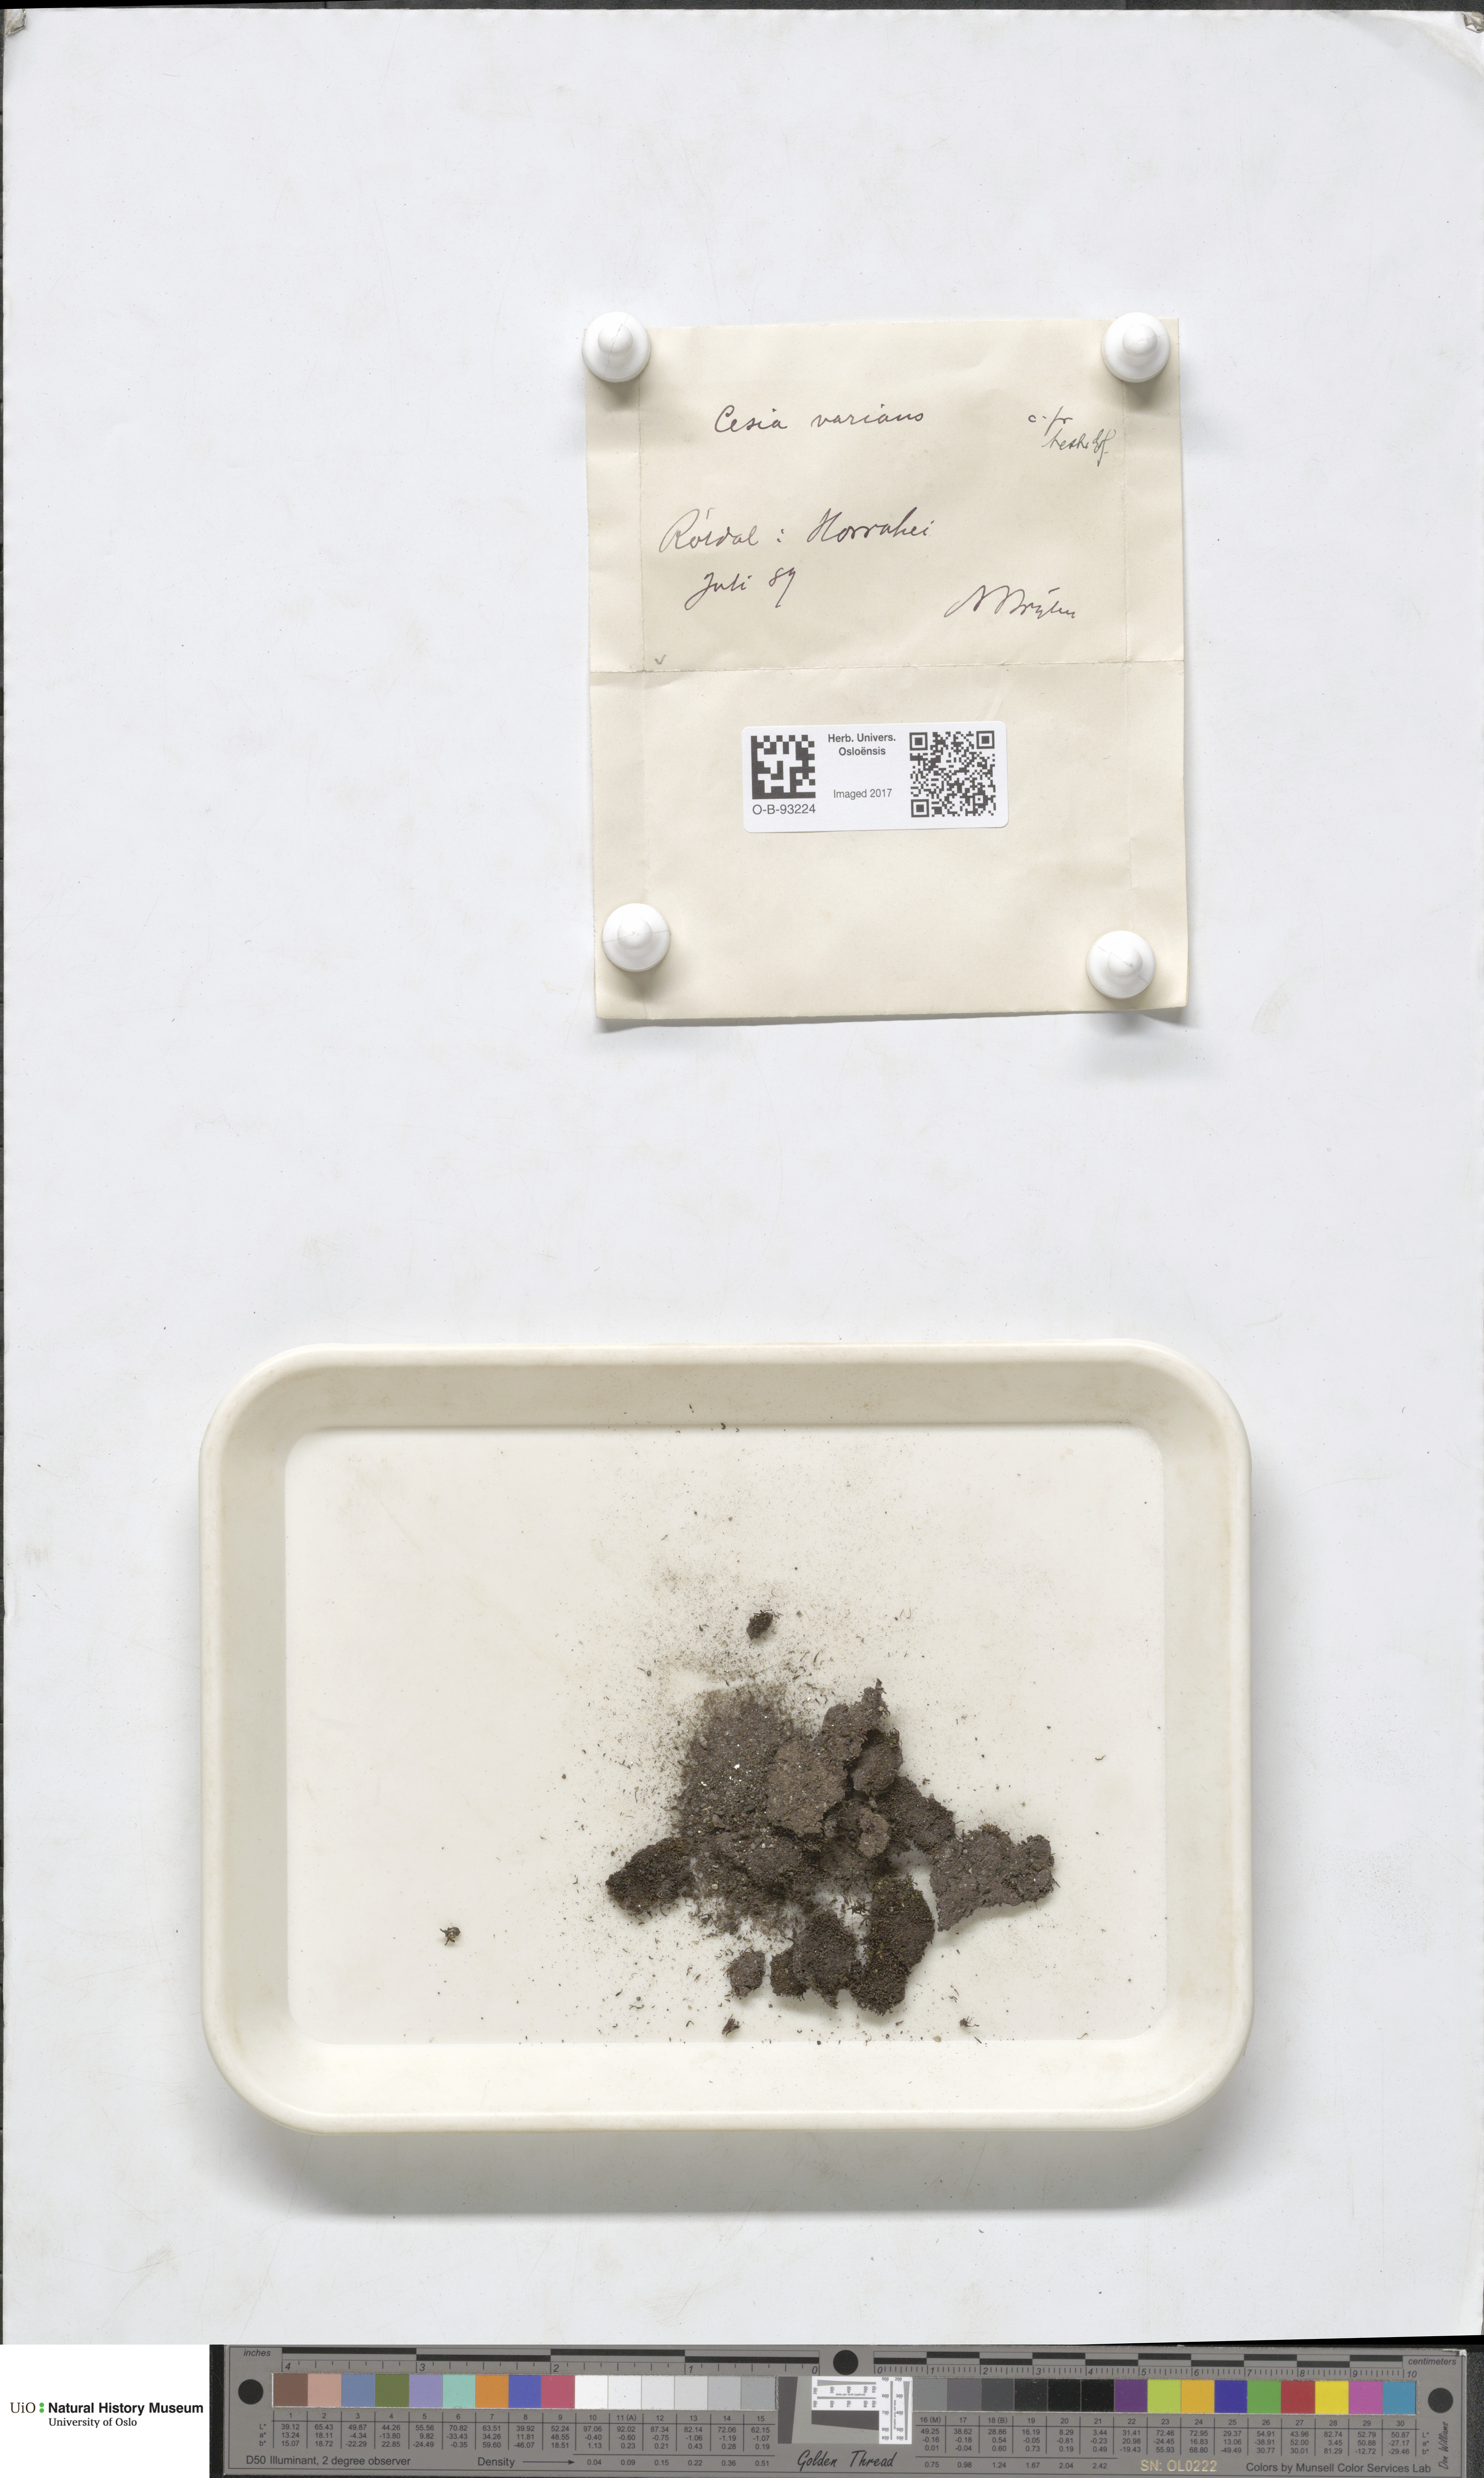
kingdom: Plantae
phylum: Marchantiophyta
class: Jungermanniopsida
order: Jungermanniales
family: Gymnomitriaceae
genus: Gymnomitrion
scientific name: Gymnomitrion brevissimum
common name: Snow rustwort
